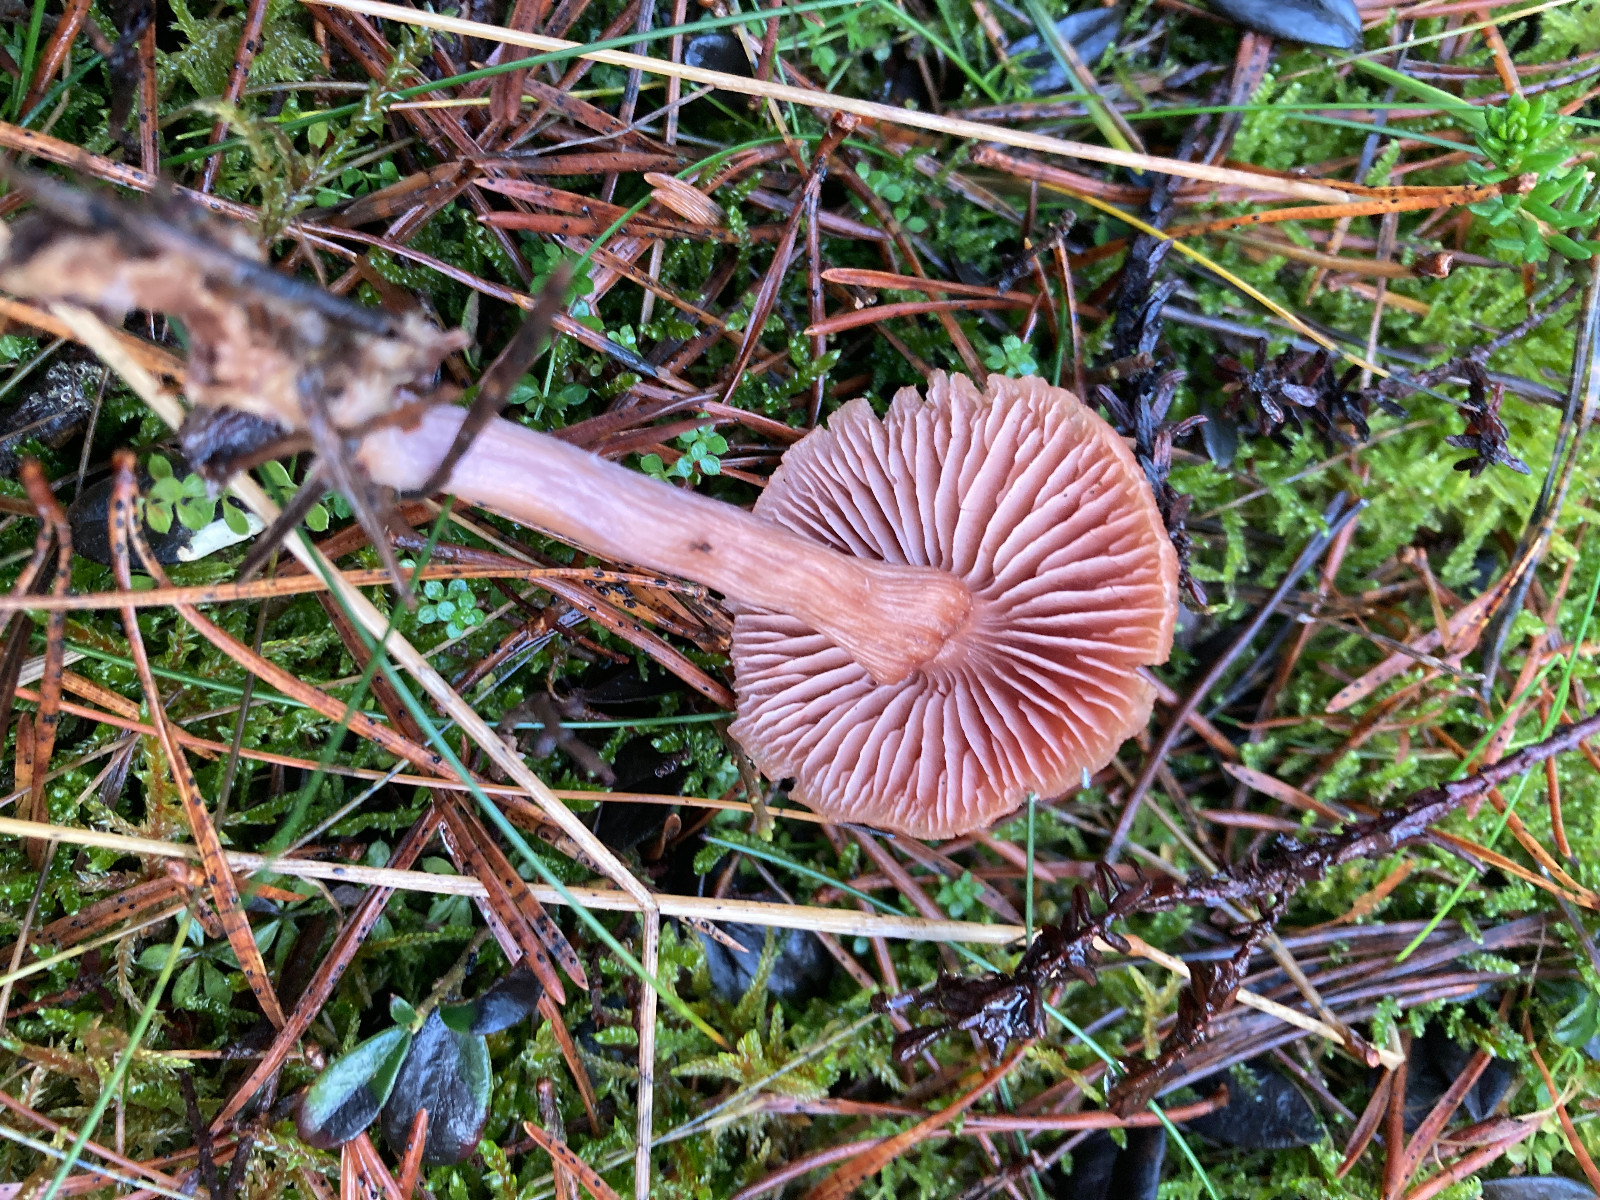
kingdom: Fungi
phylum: Basidiomycota
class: Agaricomycetes
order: Agaricales
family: Hydnangiaceae
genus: Laccaria
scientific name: Laccaria bicolor
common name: tvefarvet ametysthat
